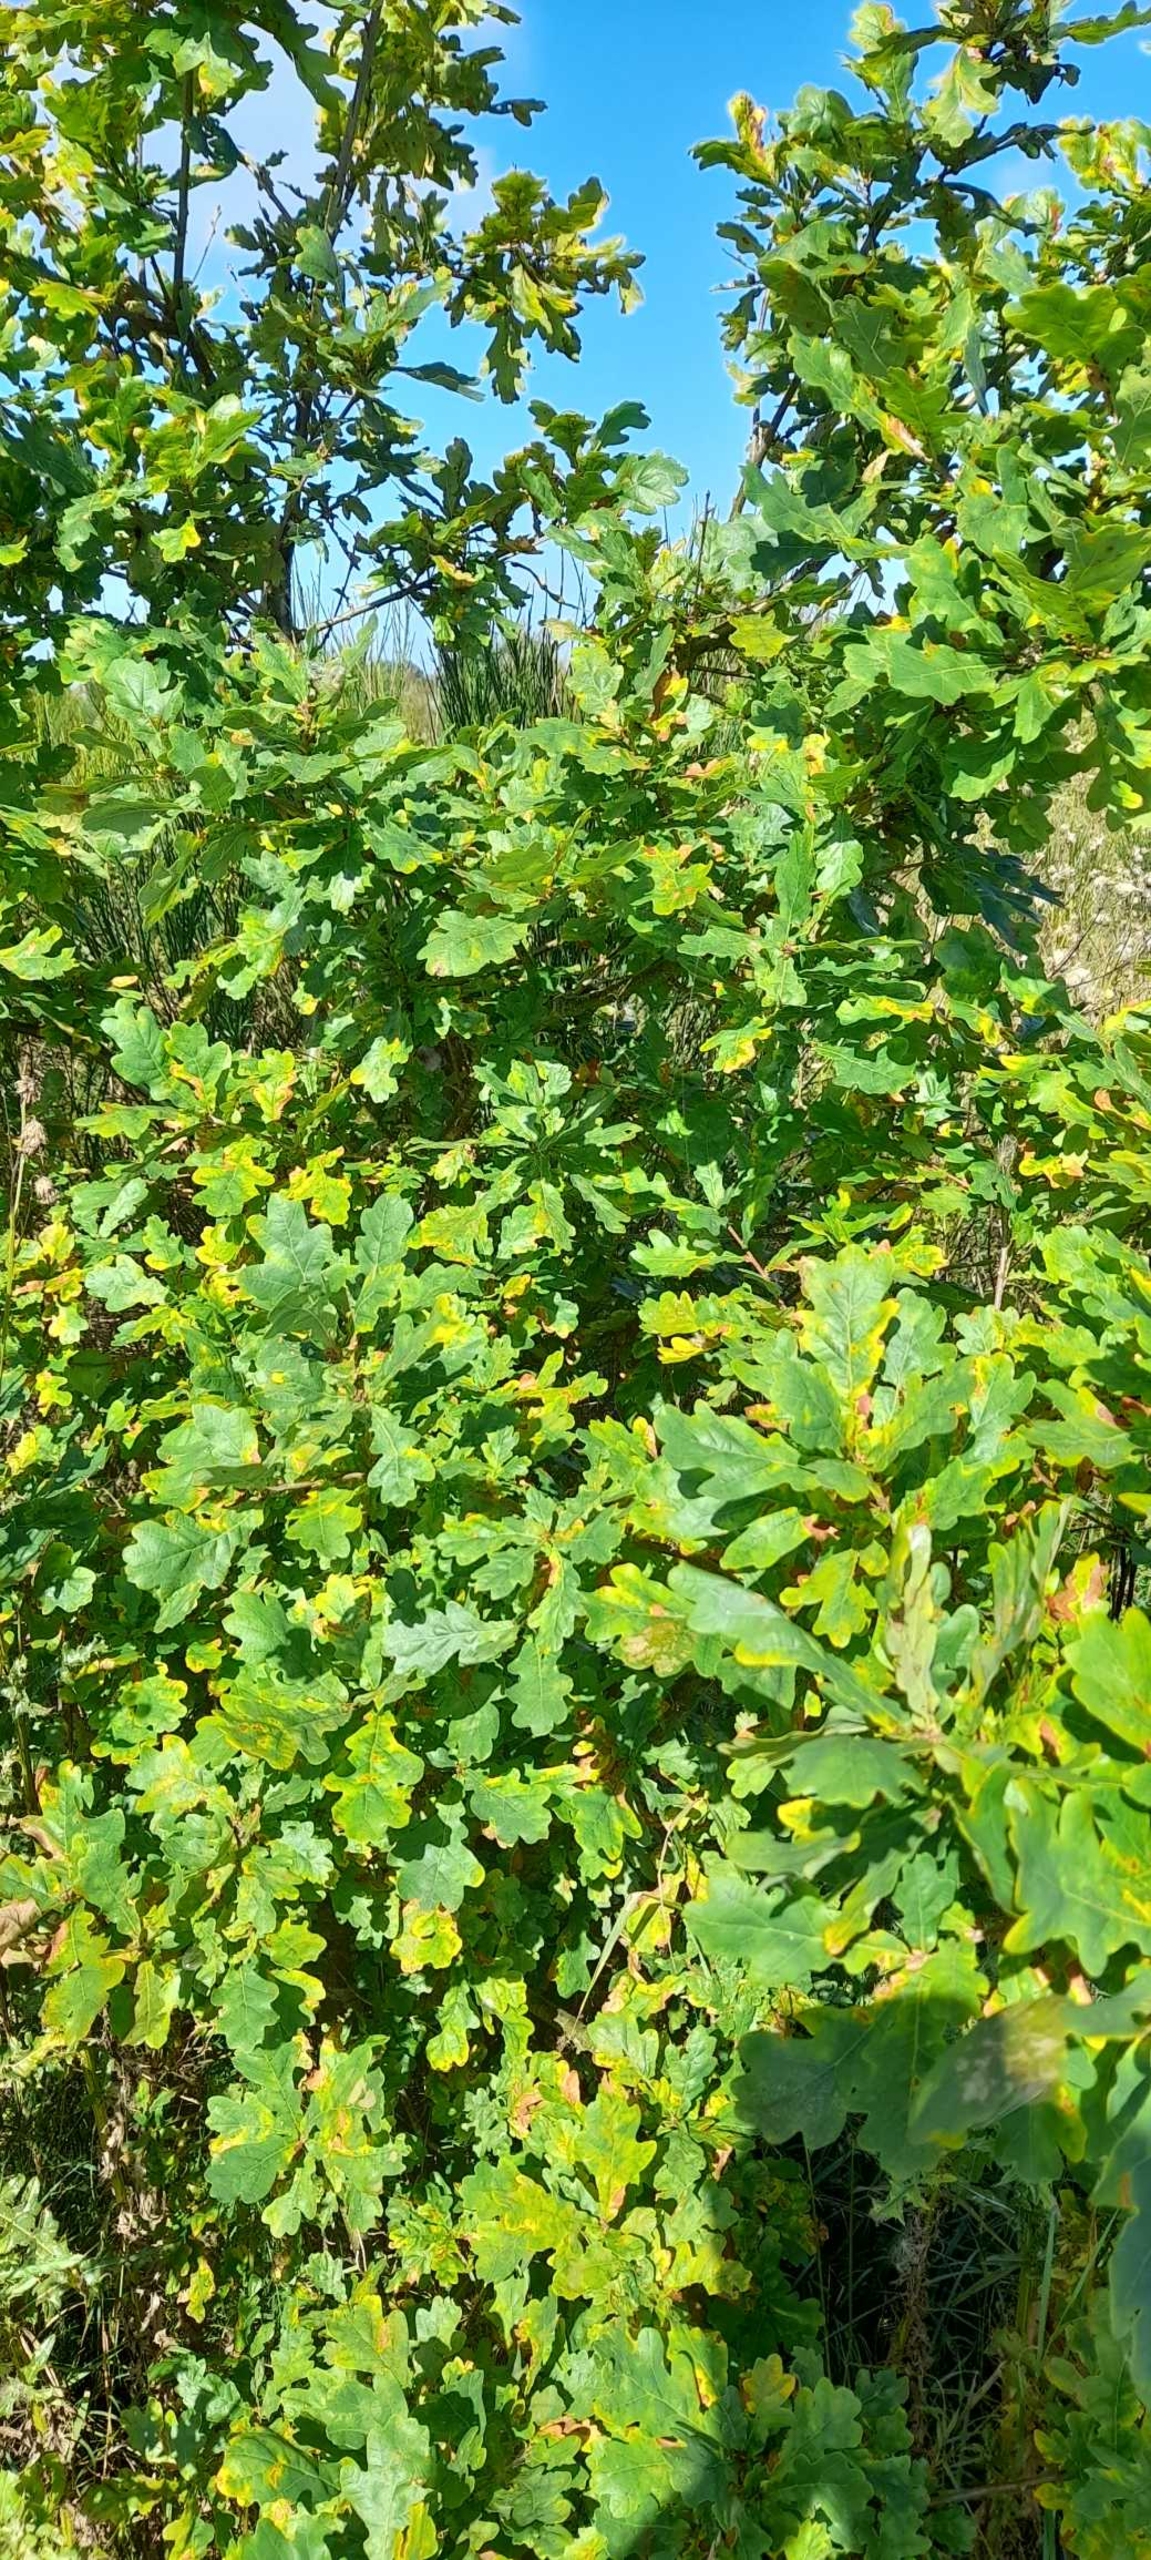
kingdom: Plantae
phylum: Tracheophyta
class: Magnoliopsida
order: Fagales
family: Fagaceae
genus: Quercus
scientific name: Quercus robur
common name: Stilk-eg/almindelig eg
